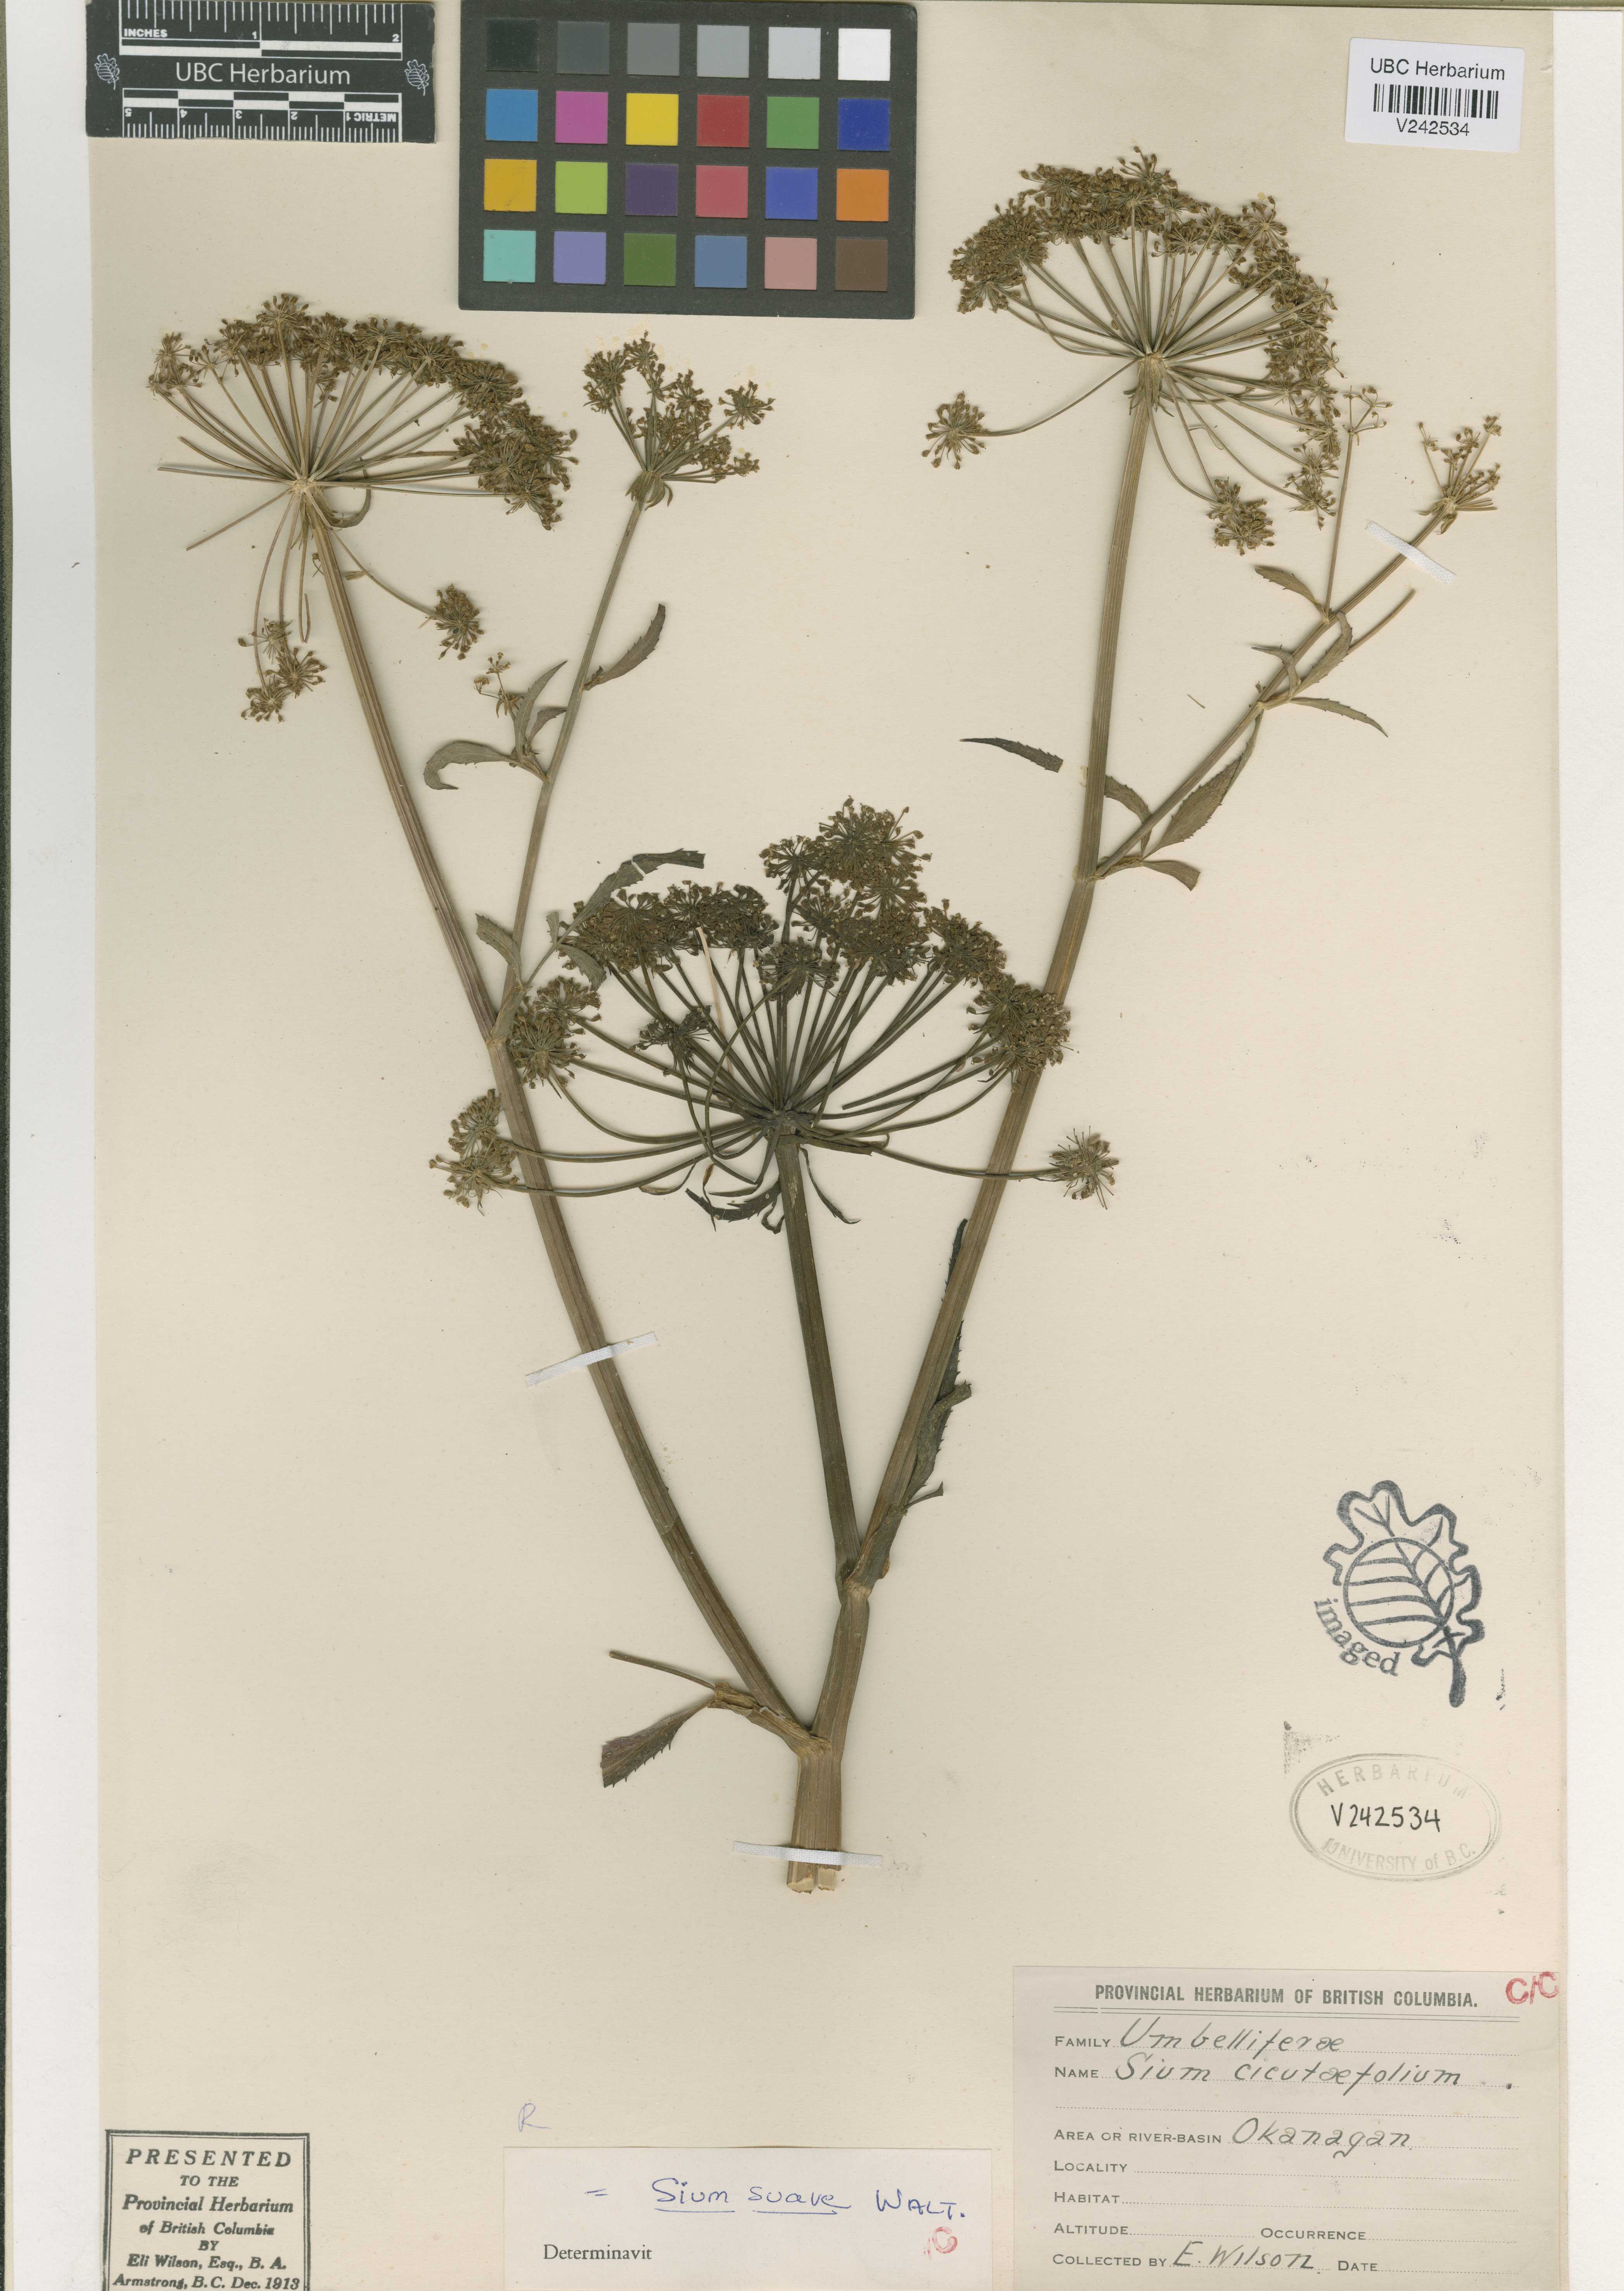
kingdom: Plantae
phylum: Tracheophyta
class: Magnoliopsida
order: Apiales
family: Apiaceae
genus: Sium
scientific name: Sium suave
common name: Hemlock water-parsnip
